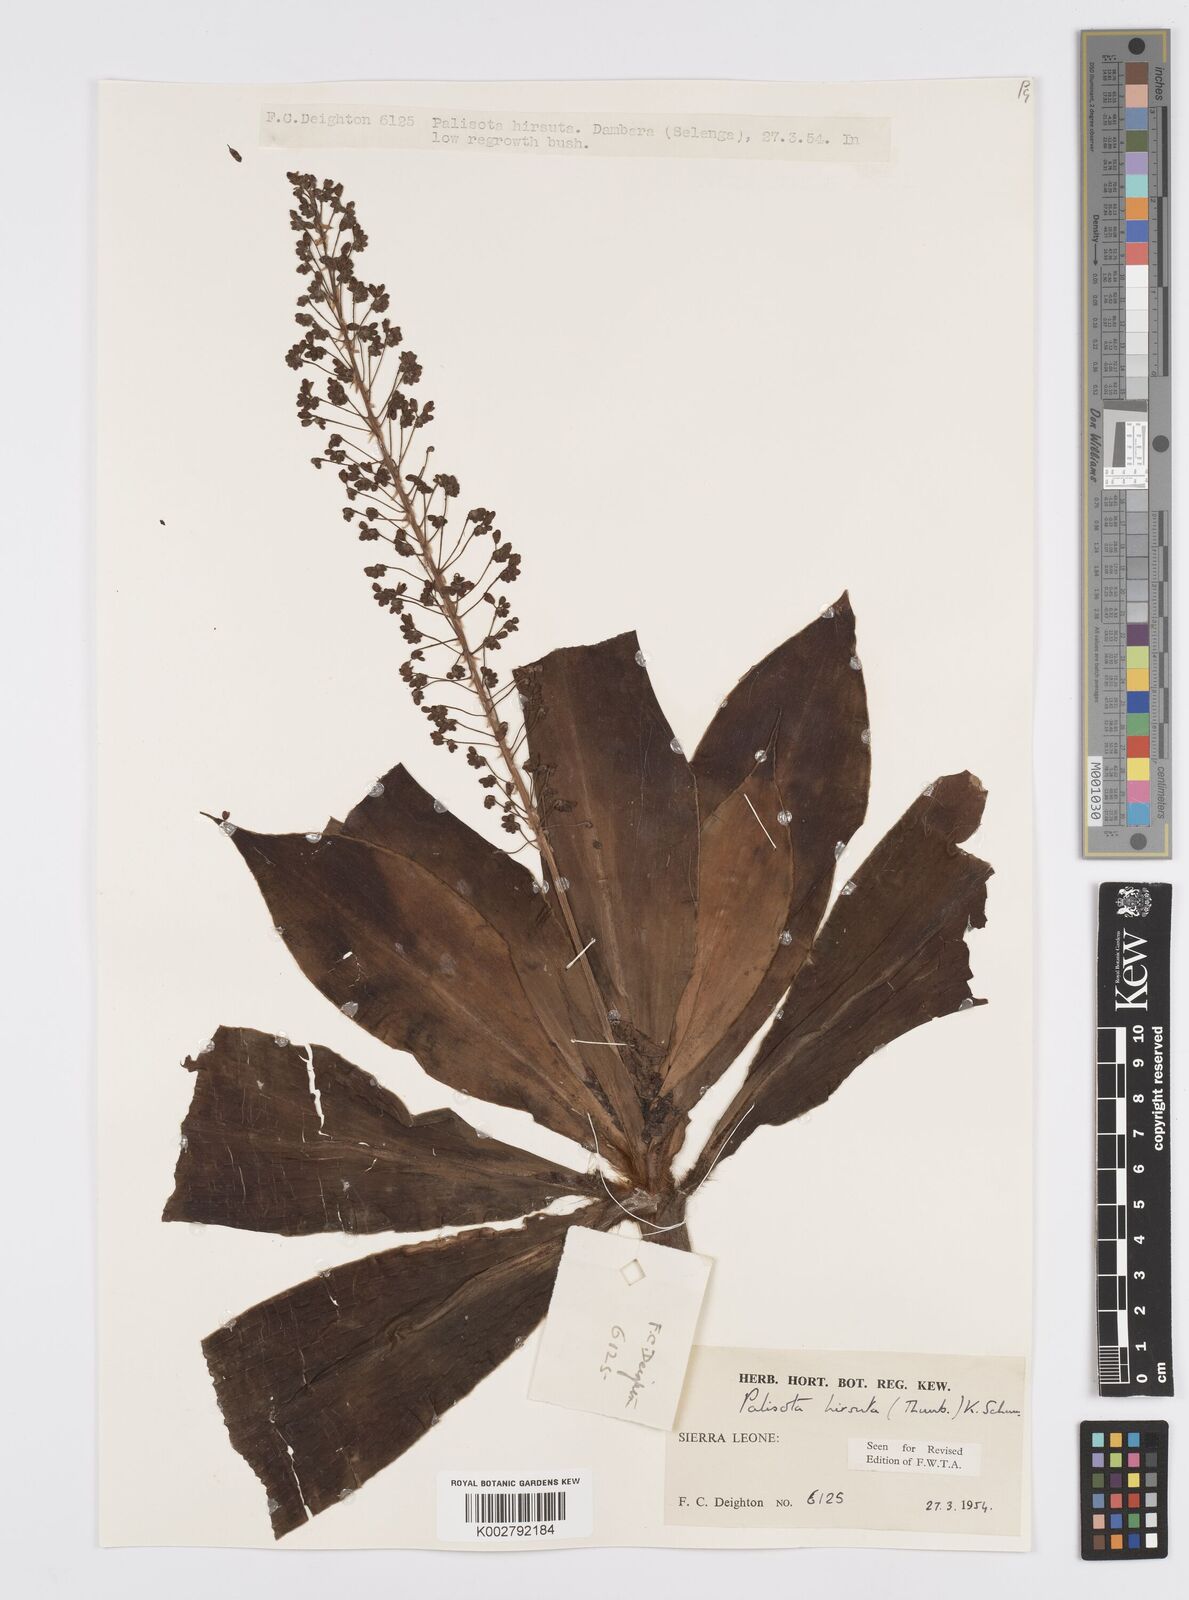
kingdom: Plantae
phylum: Tracheophyta
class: Liliopsida
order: Commelinales
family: Commelinaceae
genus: Palisota
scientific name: Palisota hirsuta
